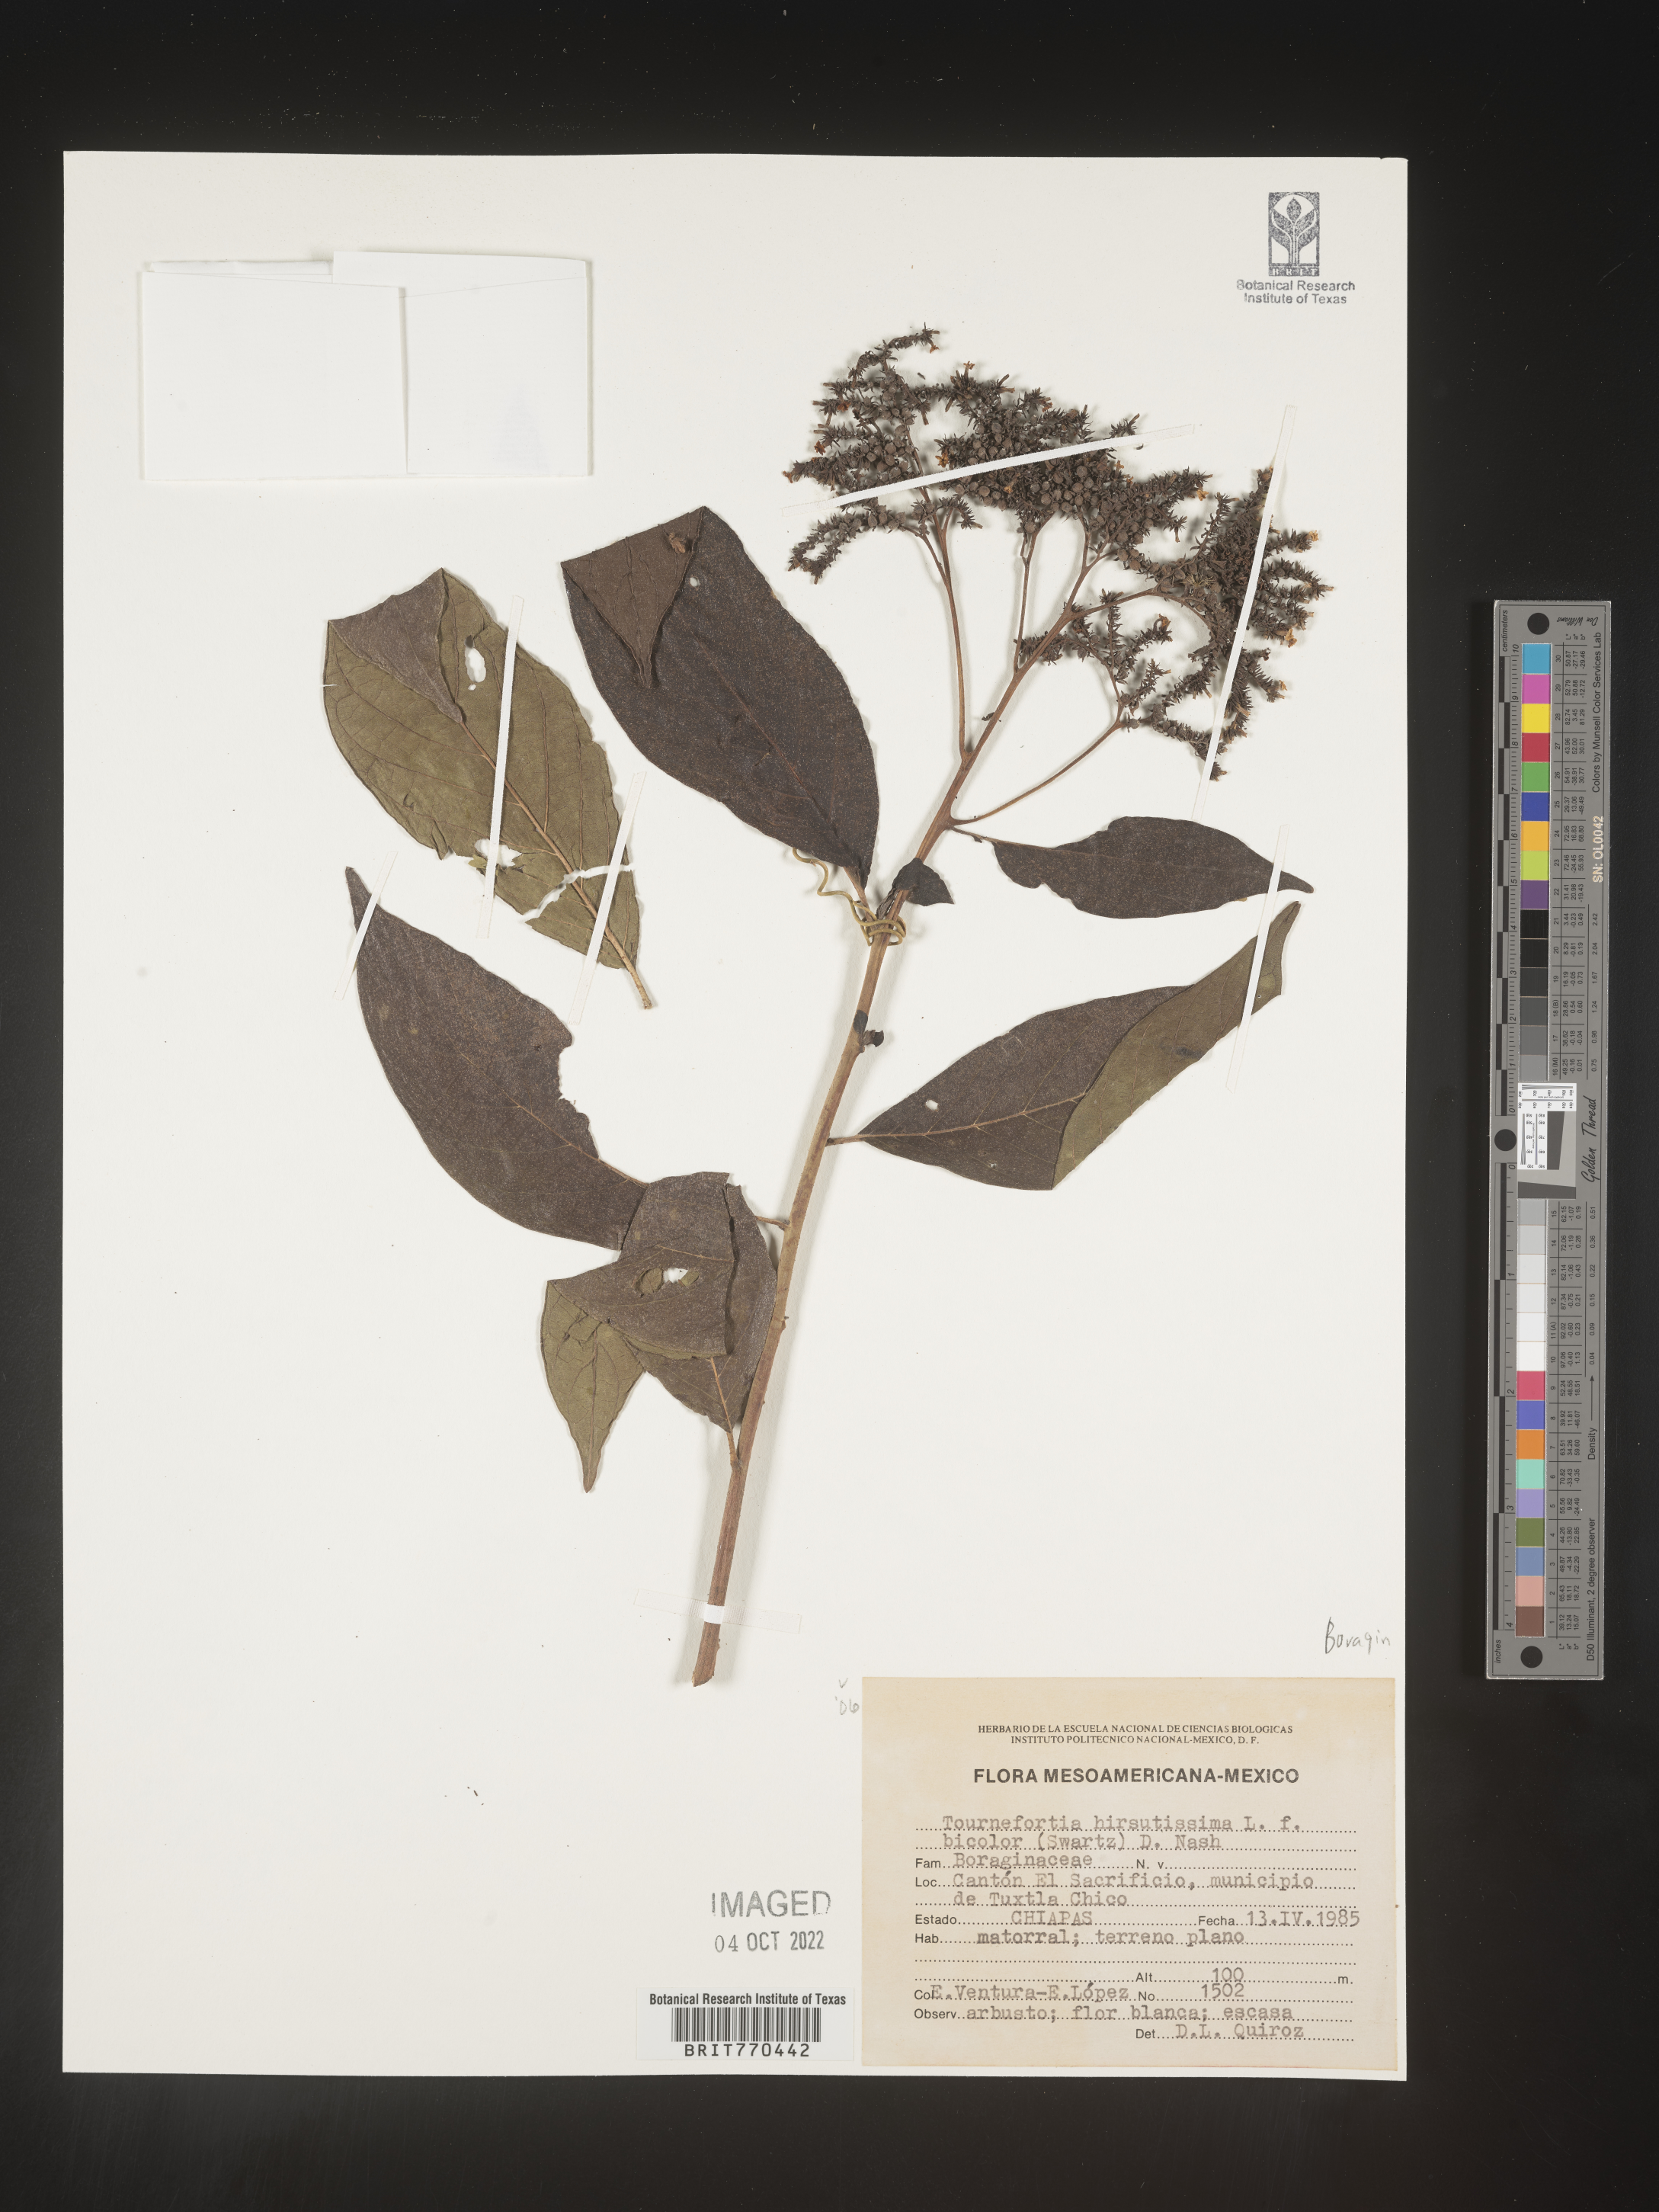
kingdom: Plantae
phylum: Tracheophyta
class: Magnoliopsida
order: Boraginales
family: Heliotropiaceae
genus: Tournefortia
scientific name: Tournefortia
